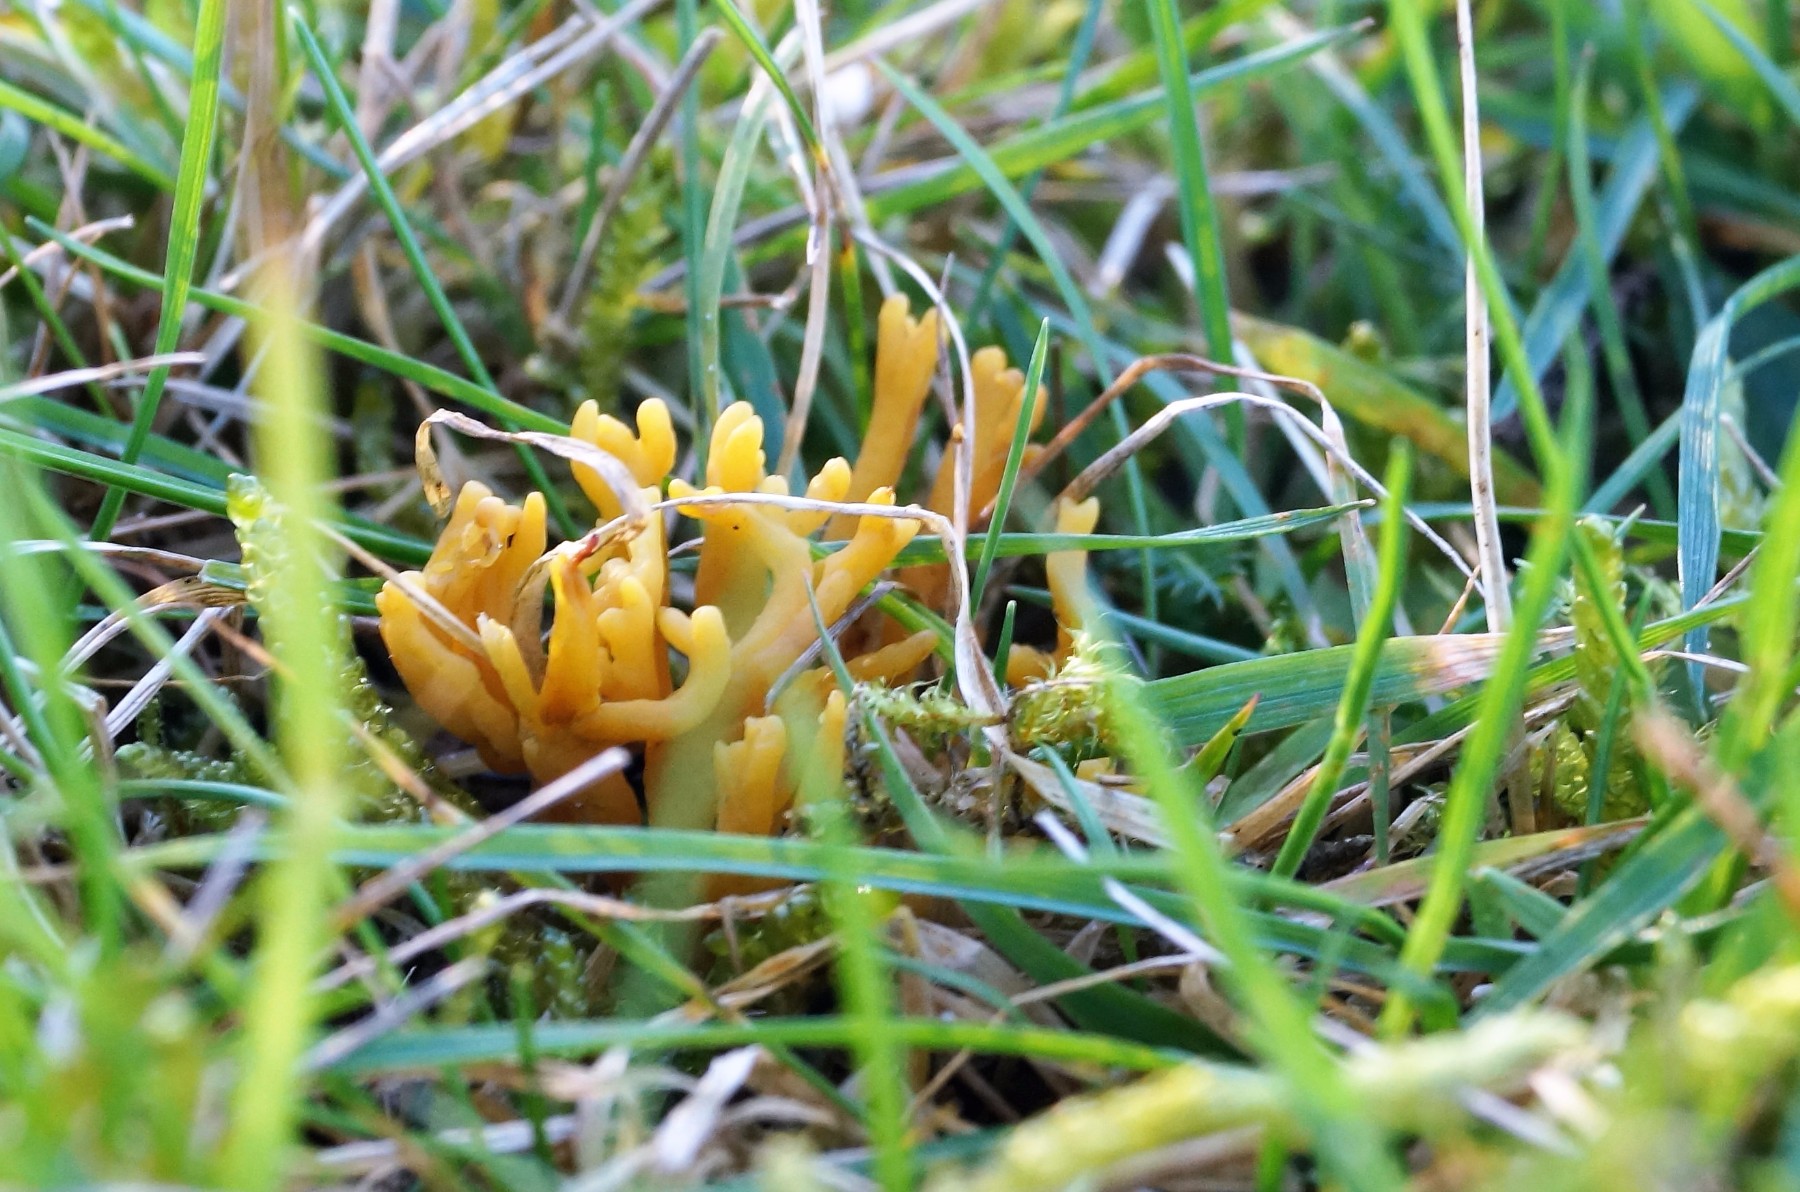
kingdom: Fungi
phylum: Basidiomycota
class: Agaricomycetes
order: Agaricales
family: Clavariaceae
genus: Clavulinopsis
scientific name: Clavulinopsis corniculata
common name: eng-køllesvamp
